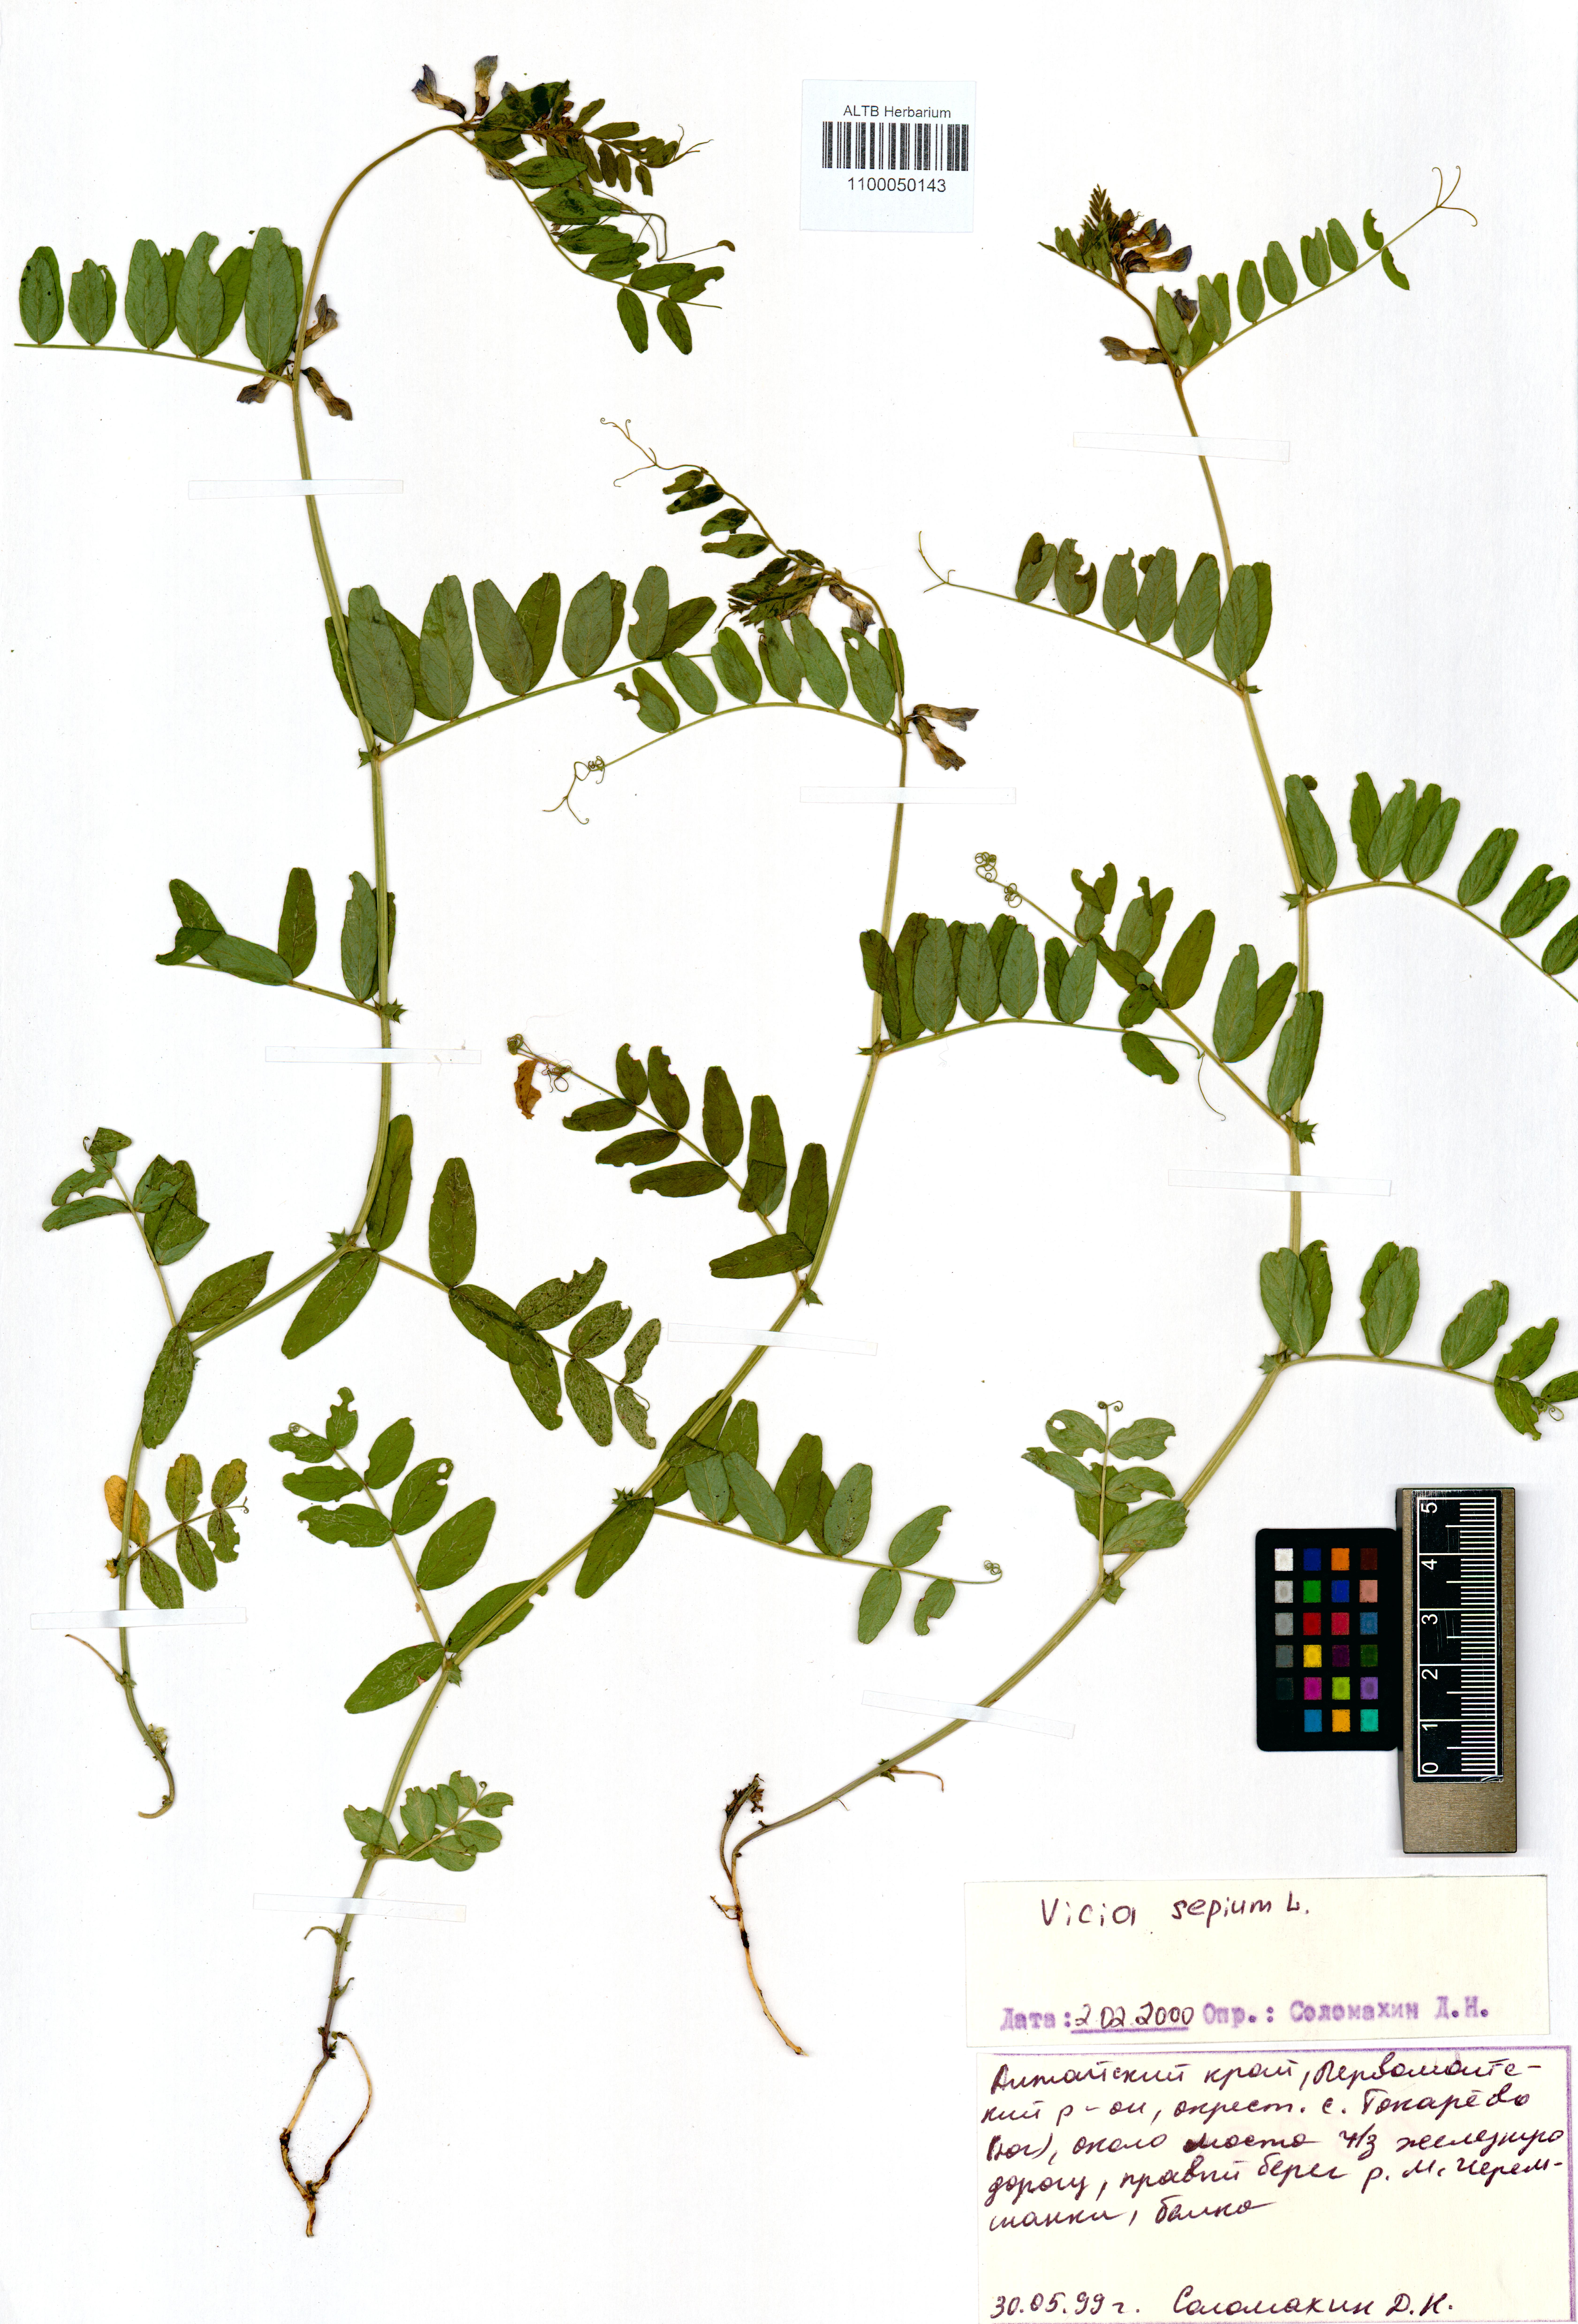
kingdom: Plantae
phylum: Tracheophyta
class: Magnoliopsida
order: Fabales
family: Fabaceae
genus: Vicia
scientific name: Vicia sepium
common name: Bush vetch
